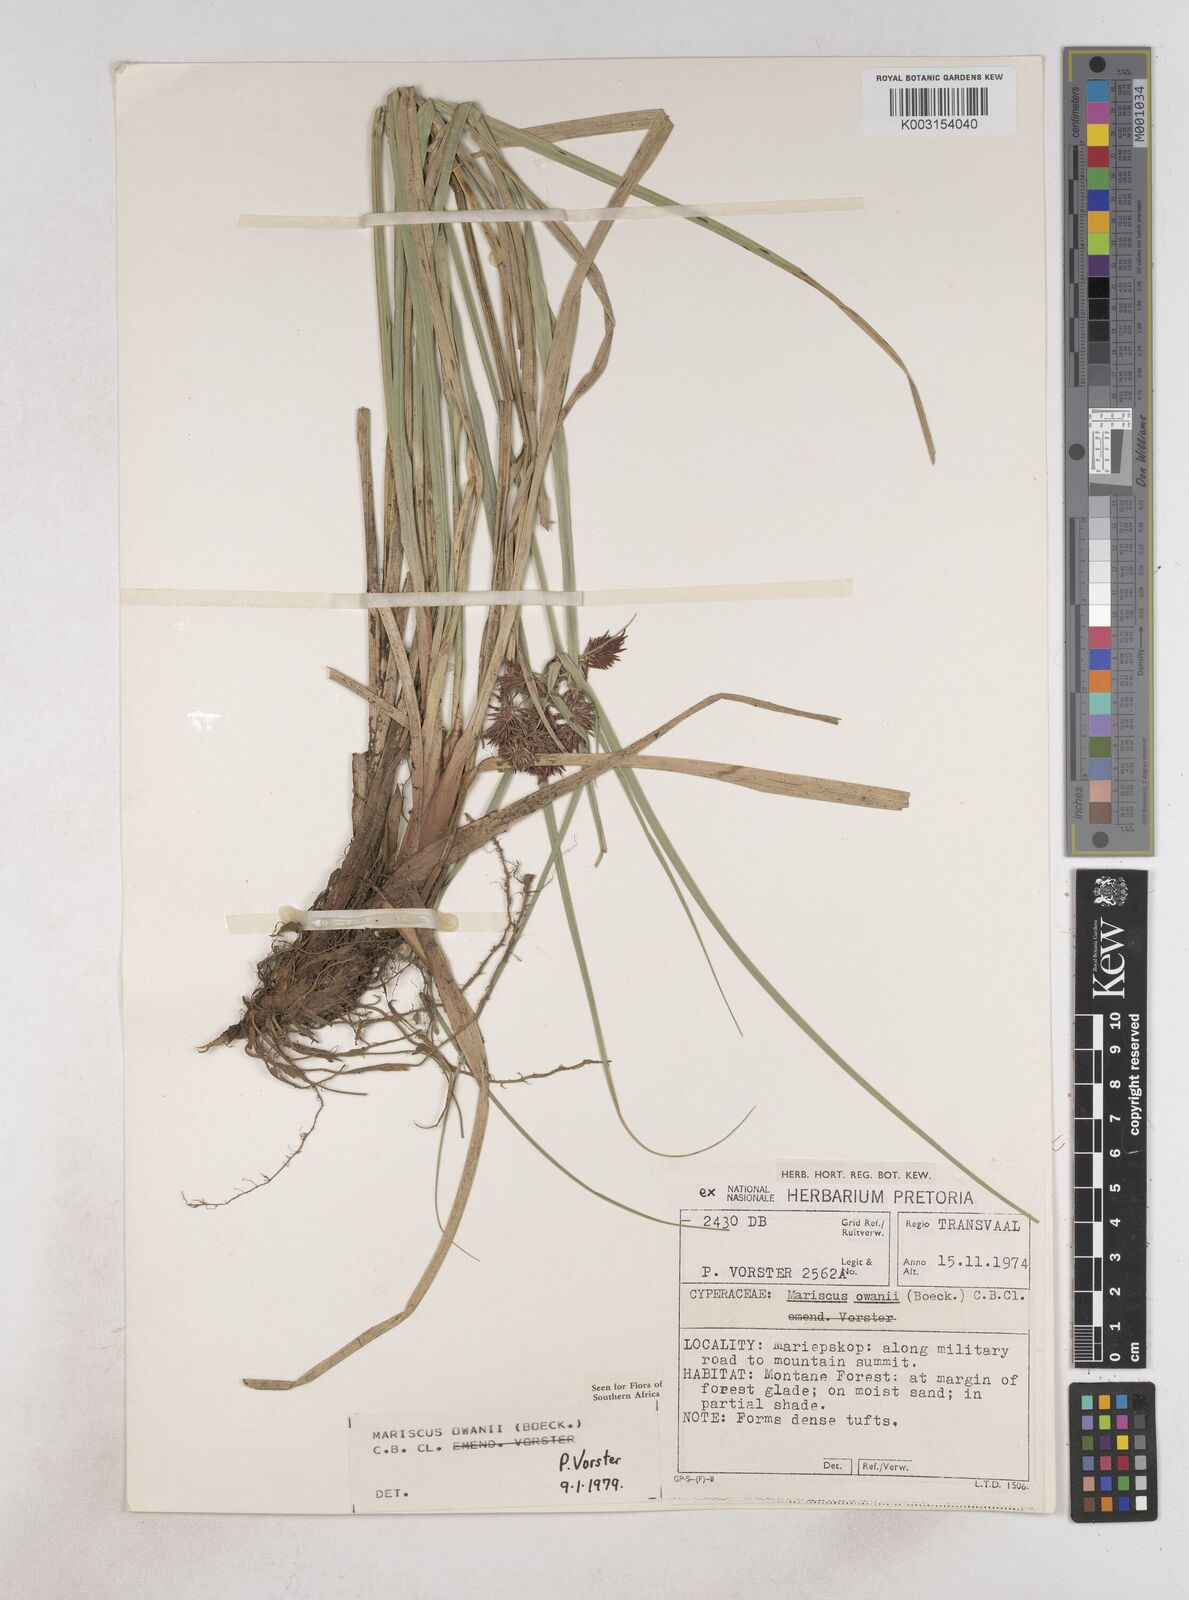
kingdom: Plantae
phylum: Tracheophyta
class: Liliopsida
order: Poales
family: Cyperaceae
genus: Cyperus
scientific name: Cyperus owanii
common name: Owan's flatsedge
